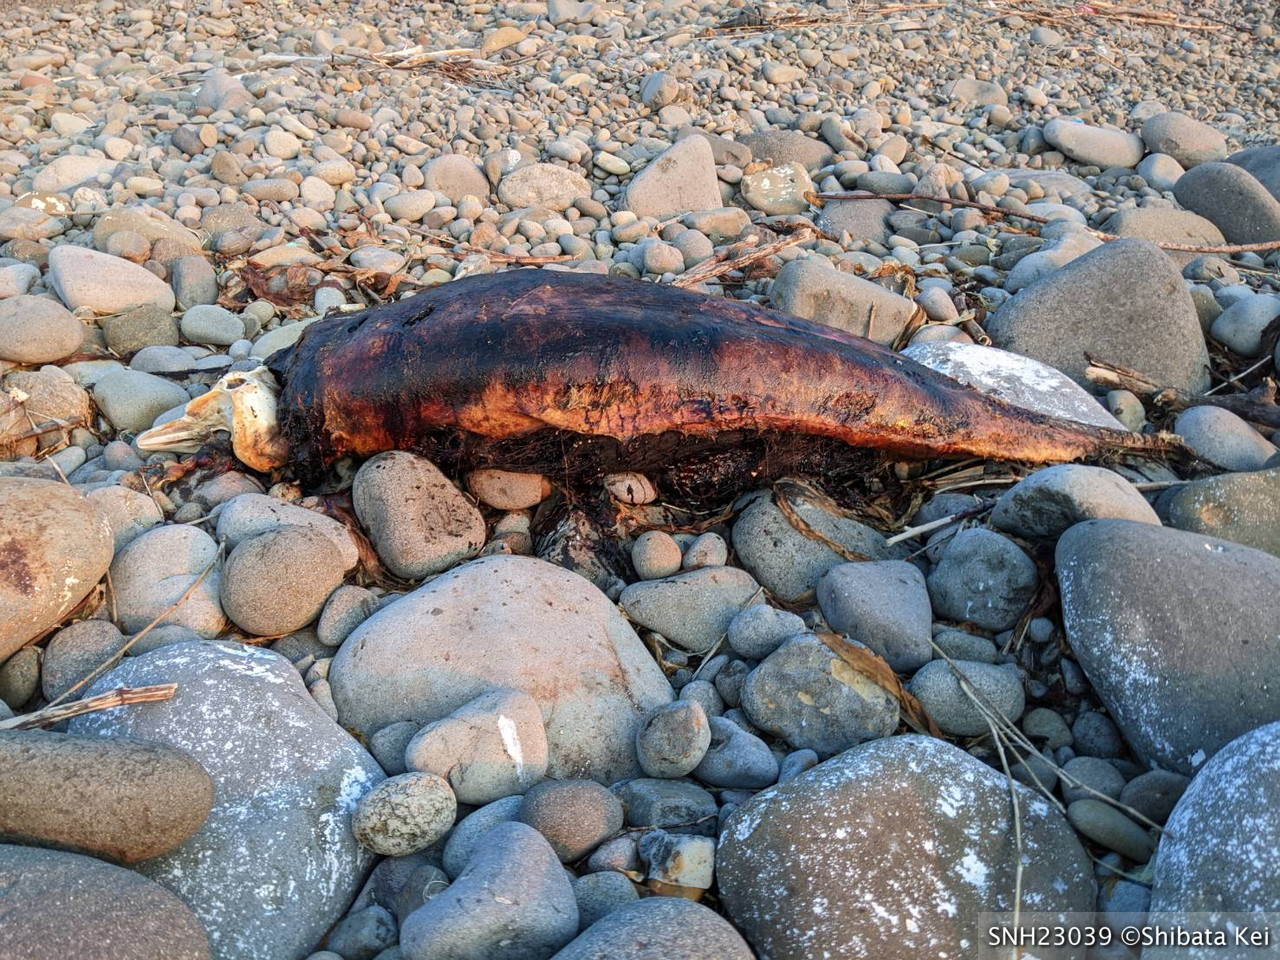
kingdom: Animalia
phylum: Chordata
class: Mammalia
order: Cetacea
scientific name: Cetacea
